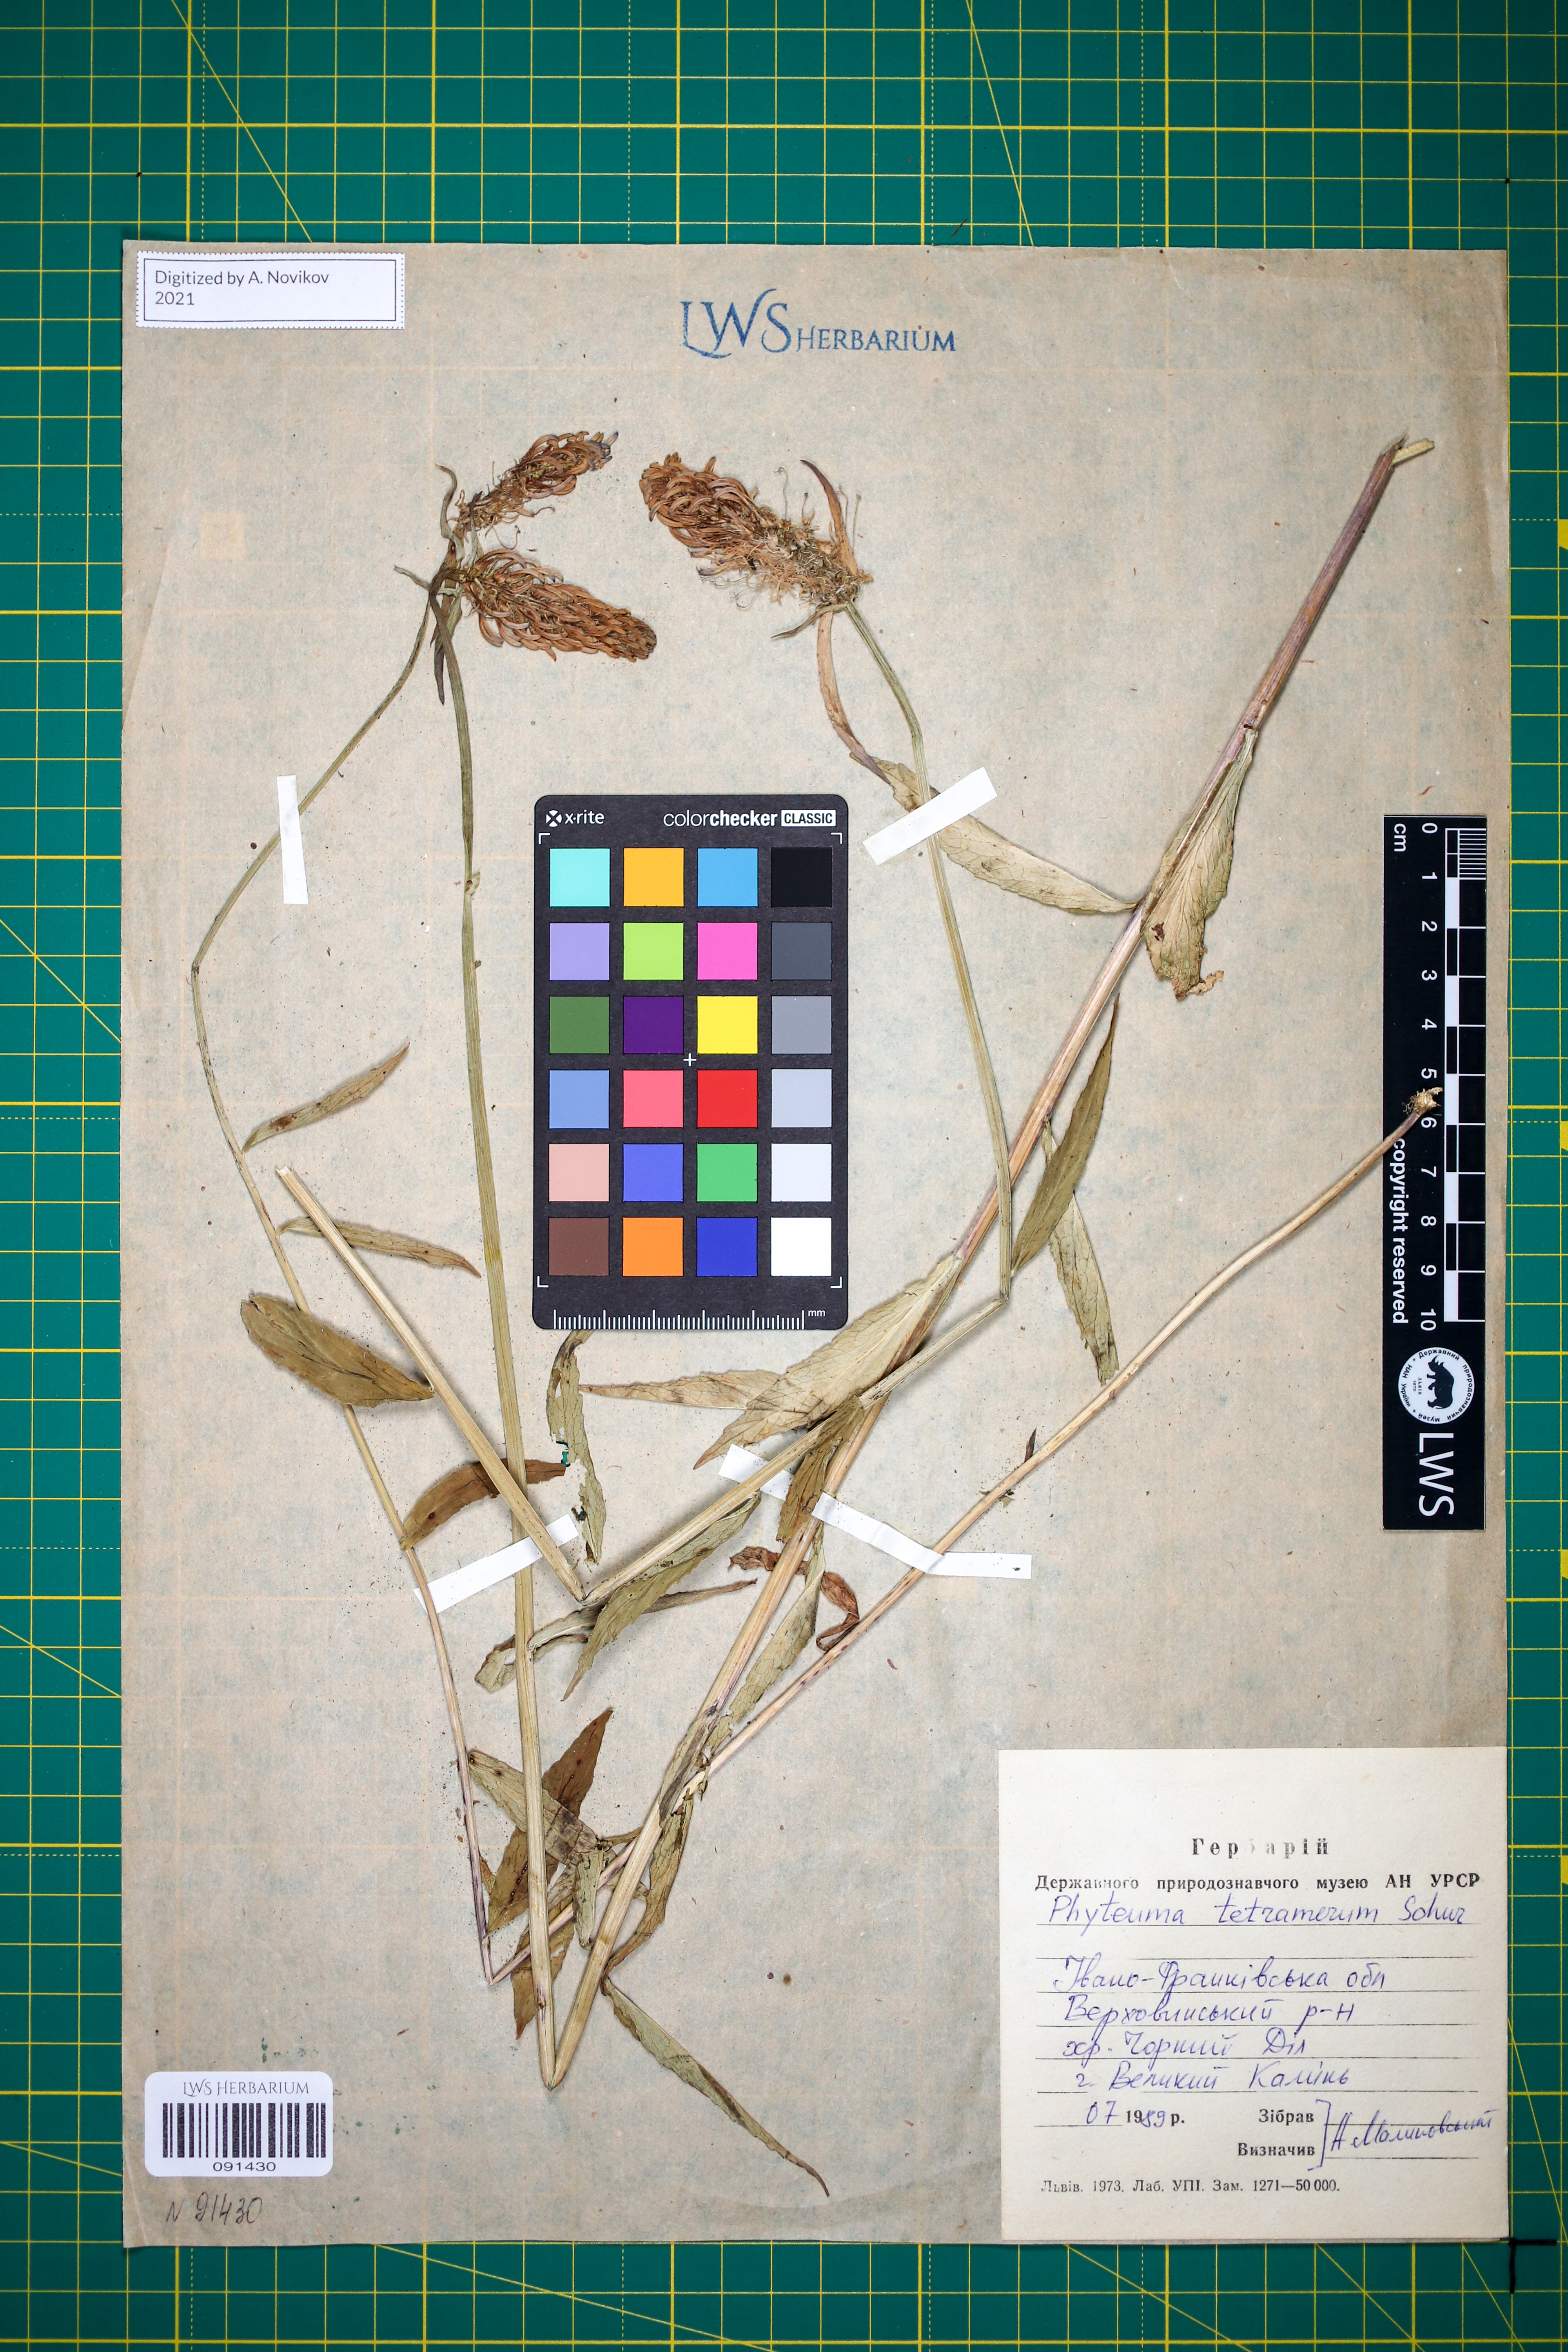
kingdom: Plantae
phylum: Tracheophyta
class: Magnoliopsida
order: Asterales
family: Campanulaceae
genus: Phyteuma
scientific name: Phyteuma tetramerum
